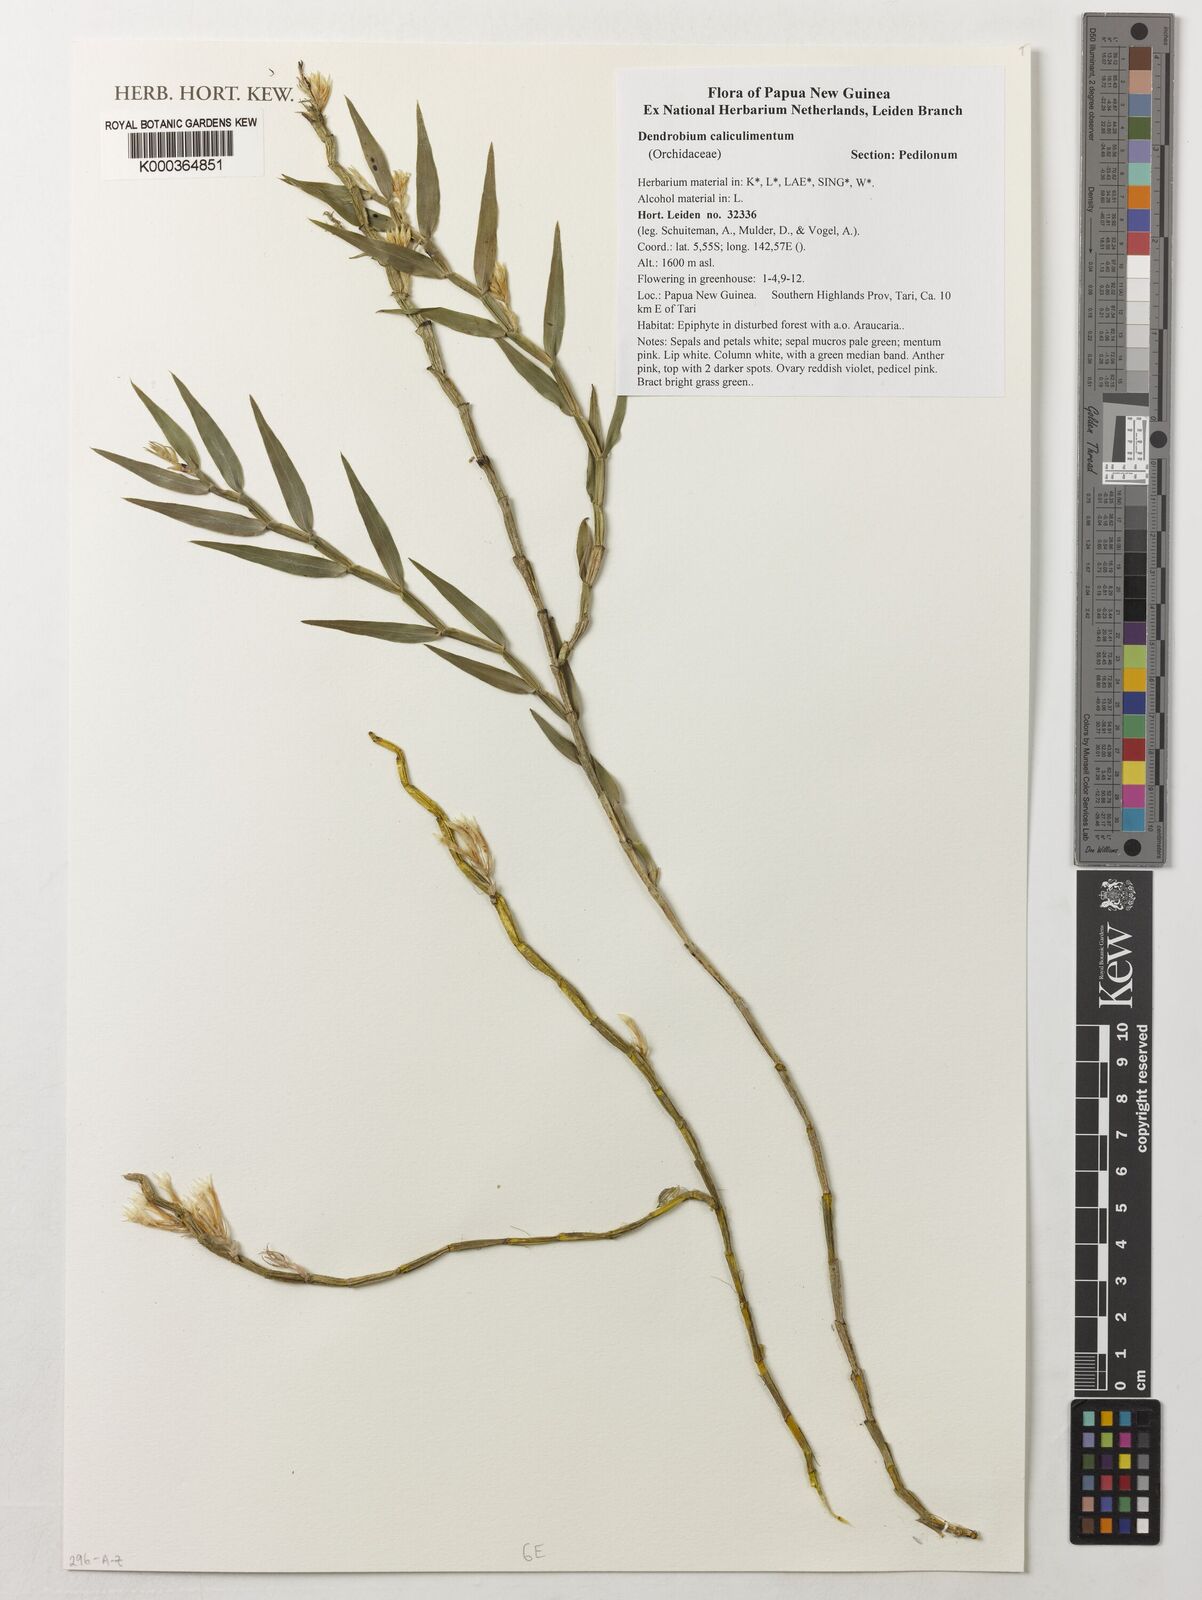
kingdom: Plantae
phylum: Tracheophyta
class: Liliopsida
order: Asparagales
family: Orchidaceae
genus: Dendrobium
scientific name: Dendrobium caliculi-mentum
